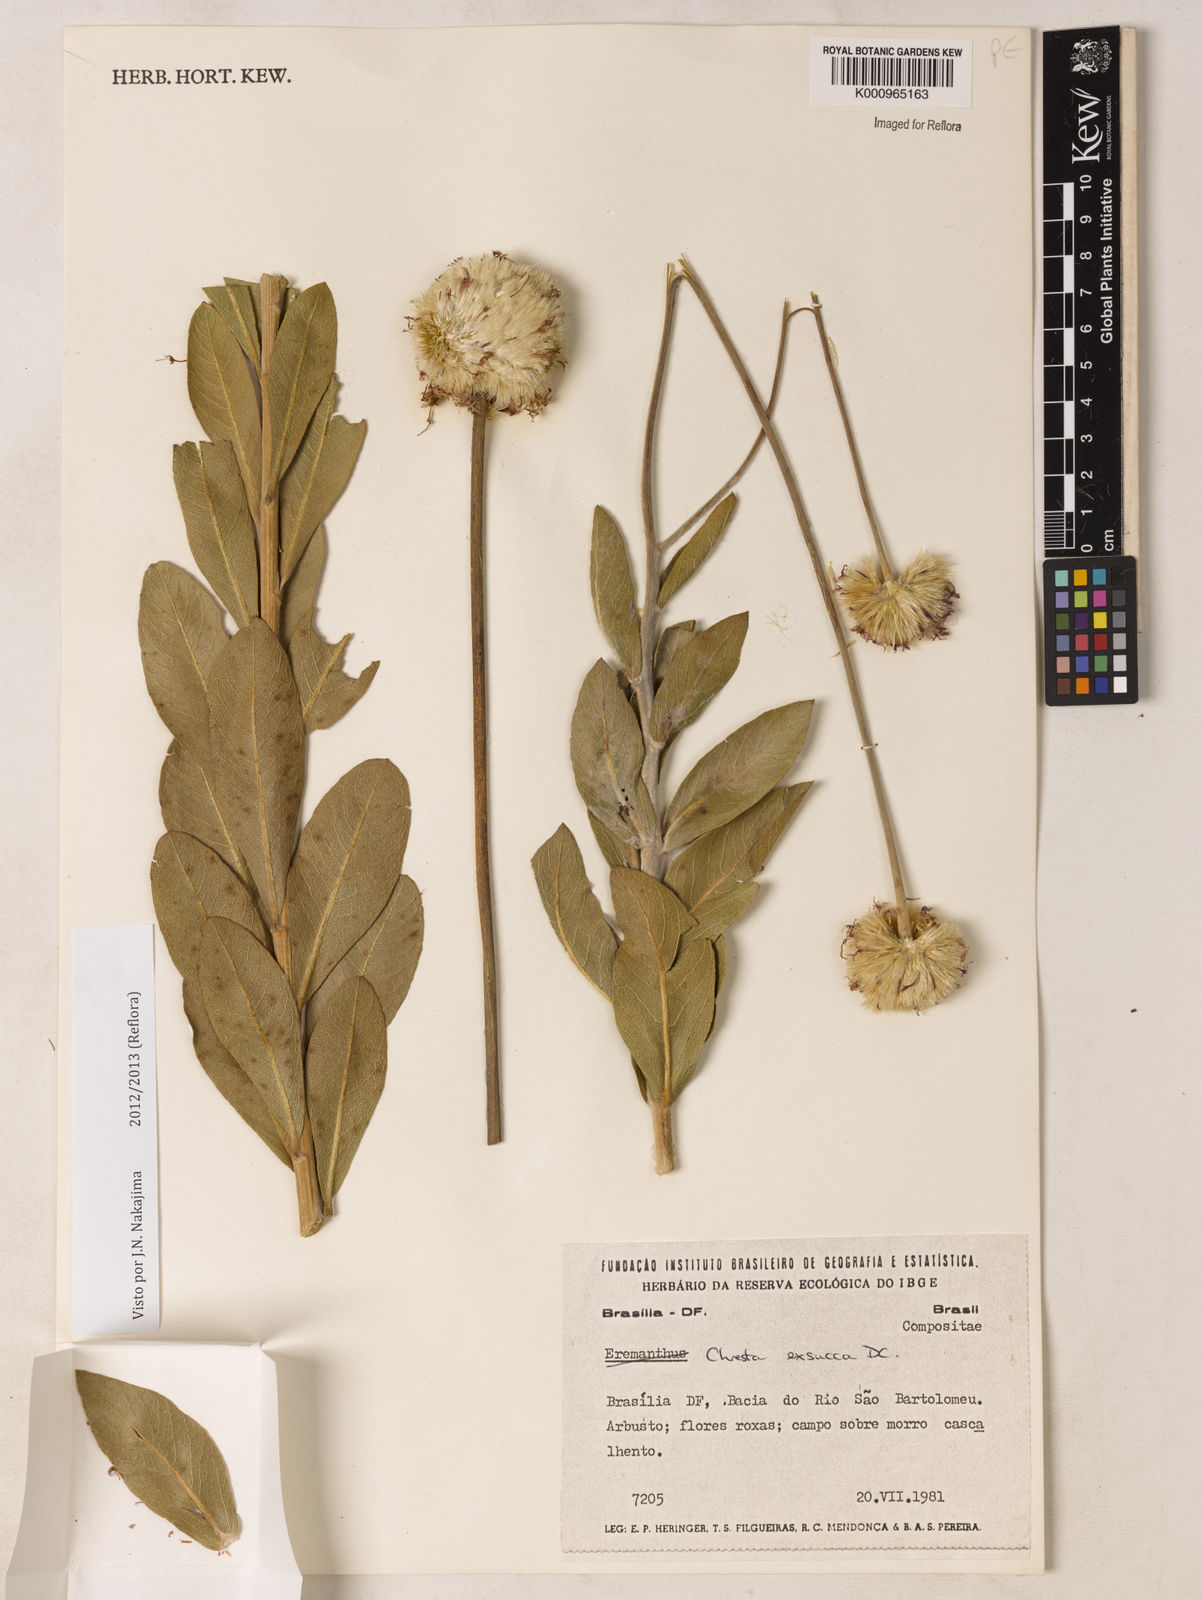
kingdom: Plantae
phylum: Tracheophyta
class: Magnoliopsida
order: Asterales
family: Asteraceae
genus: Chresta
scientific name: Chresta exsucca
